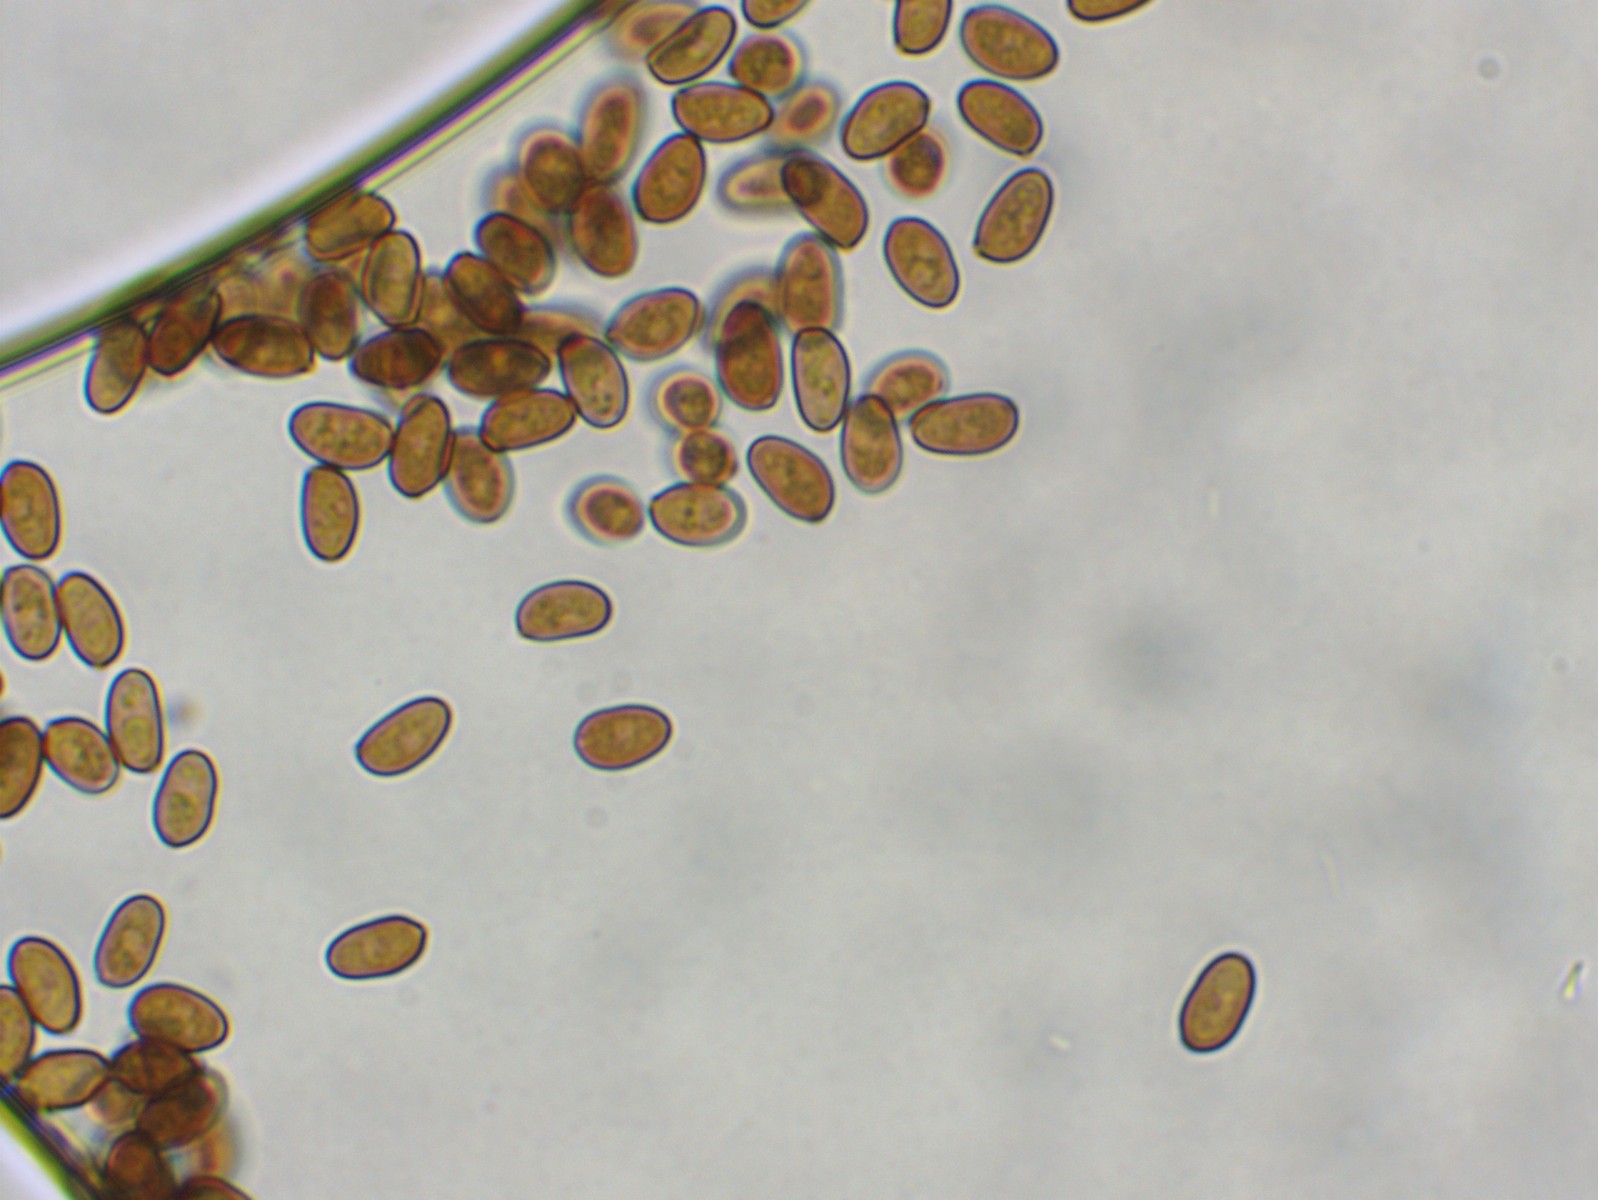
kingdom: Fungi
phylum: Basidiomycota
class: Agaricomycetes
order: Agaricales
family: Psathyrellaceae
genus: Homophron
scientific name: Homophron cernuum
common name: hvidlig mørkhat
